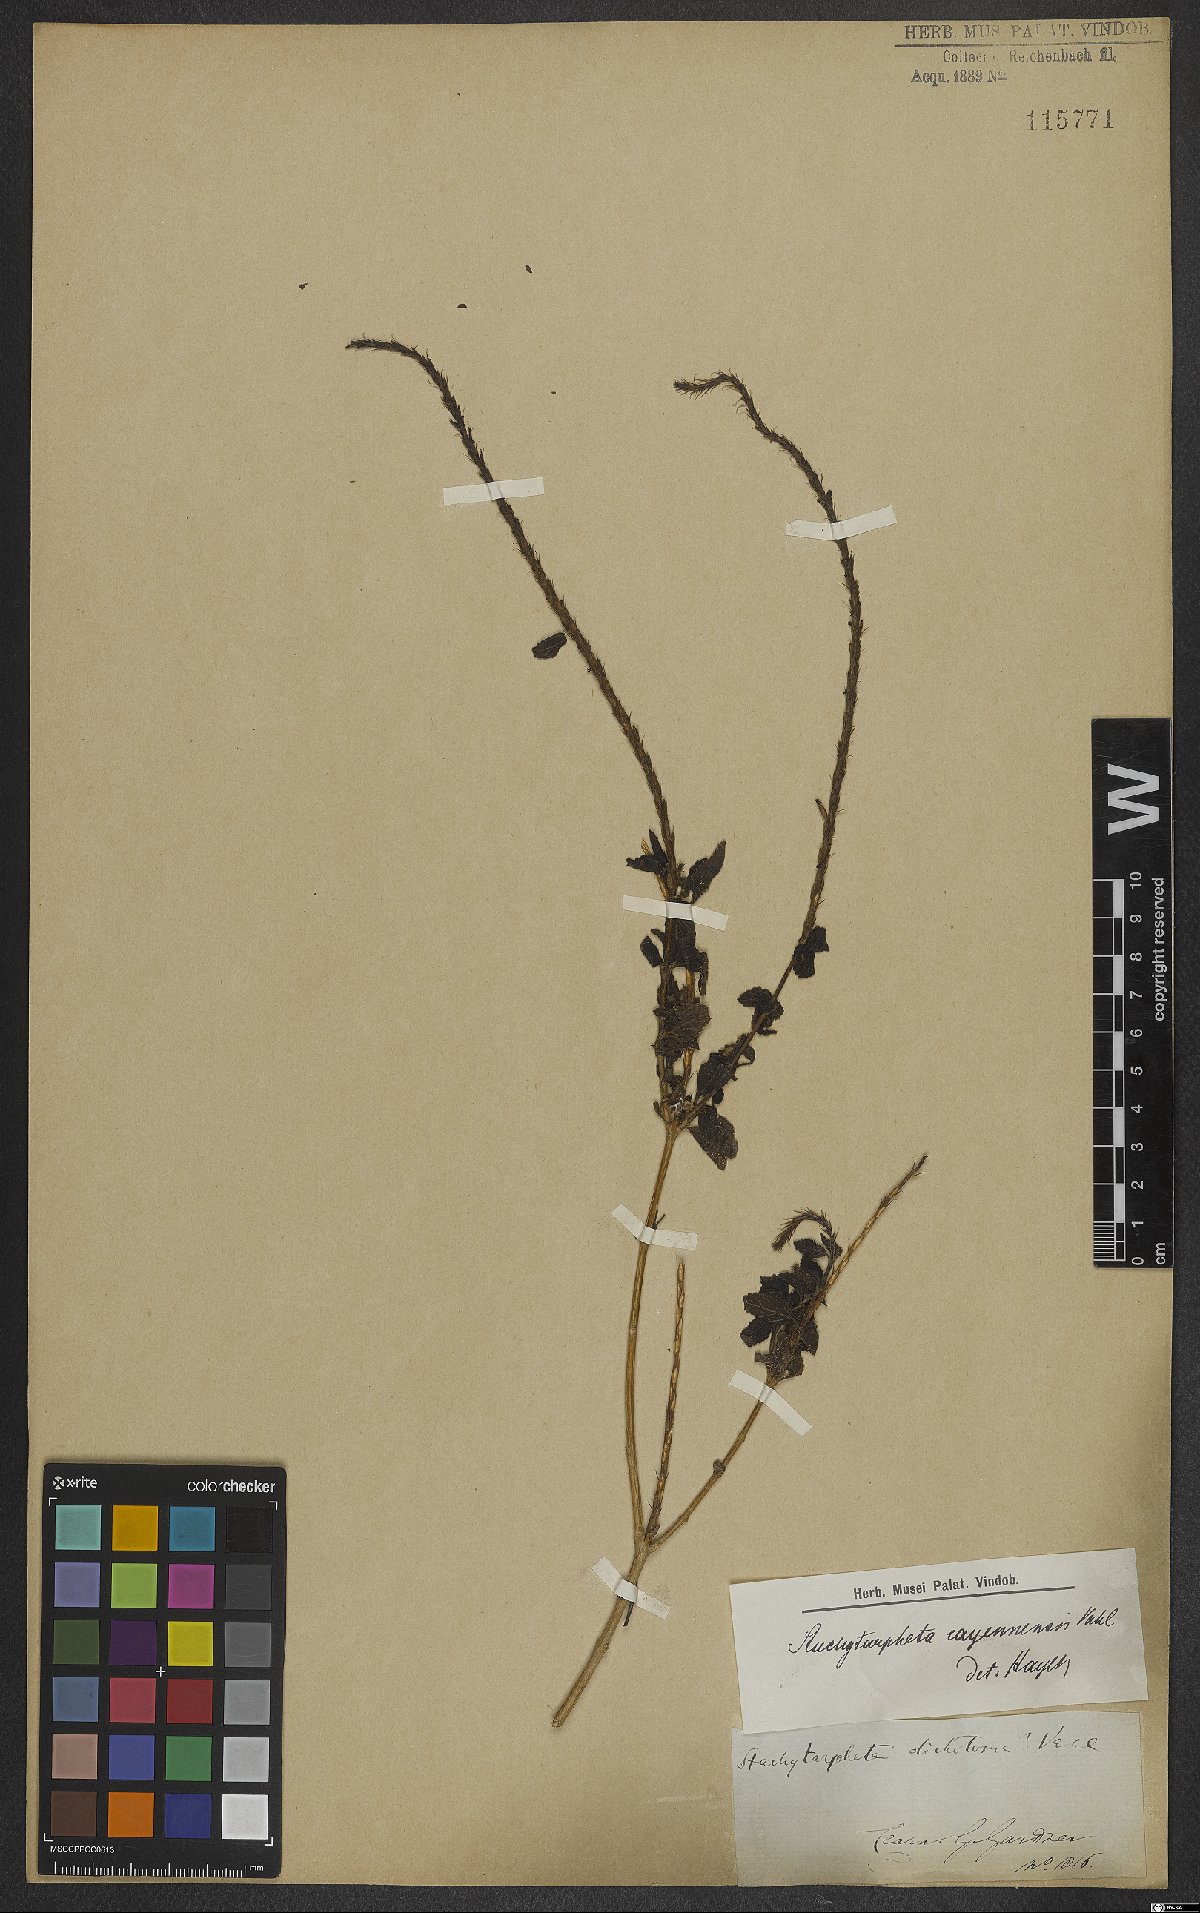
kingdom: Plantae
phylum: Tracheophyta
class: Magnoliopsida
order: Lamiales
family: Verbenaceae
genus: Stachytarpheta
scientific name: Stachytarpheta cayennensis
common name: Cayenne porterweed
